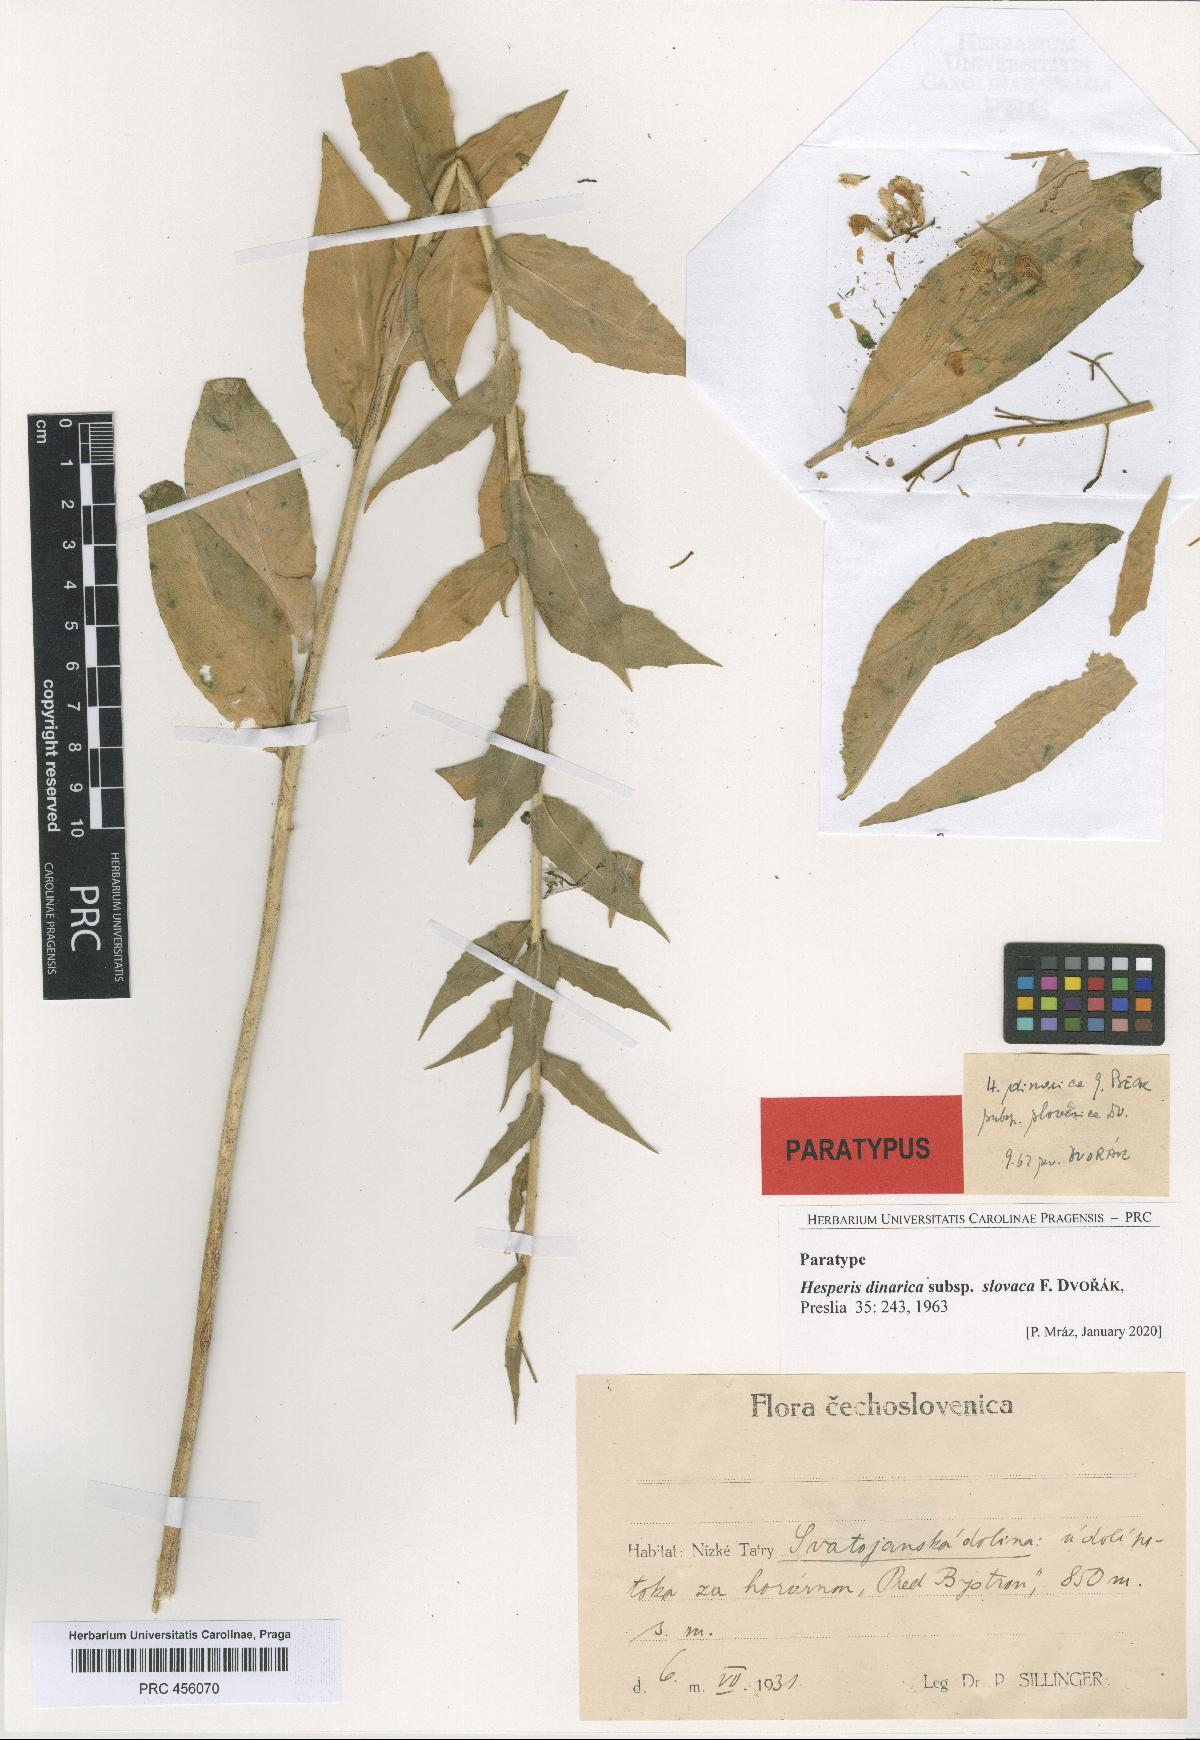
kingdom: Plantae
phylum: Tracheophyta
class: Magnoliopsida
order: Brassicales
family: Brassicaceae
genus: Hesperis
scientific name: Hesperis dinarica
